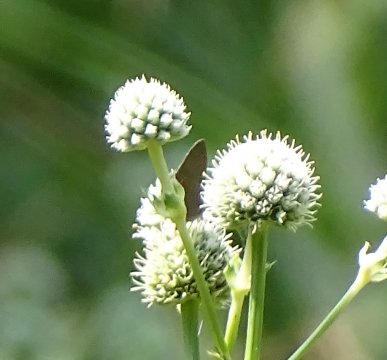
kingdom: Animalia
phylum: Arthropoda
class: Insecta
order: Lepidoptera
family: Lycaenidae
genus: Satyrium
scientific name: Satyrium
